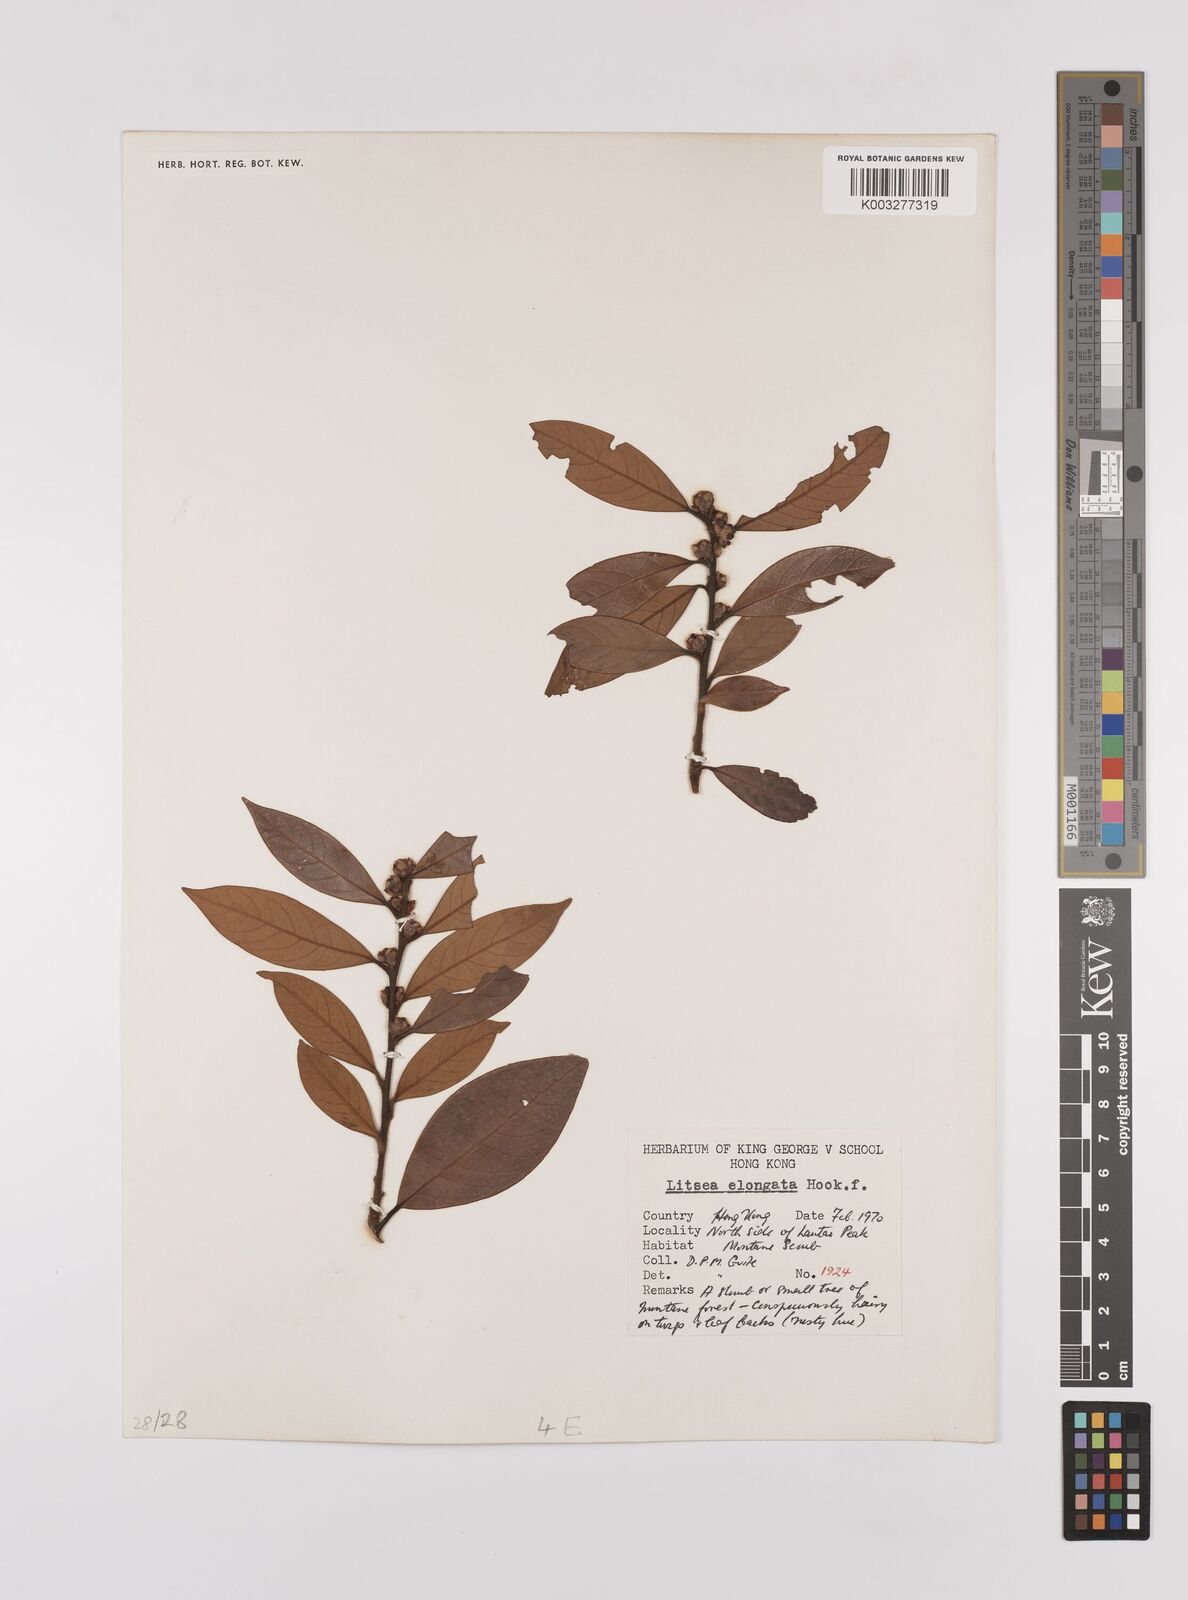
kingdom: Plantae
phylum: Tracheophyta
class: Magnoliopsida
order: Laurales
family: Lauraceae
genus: Litsea
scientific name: Litsea elongata
